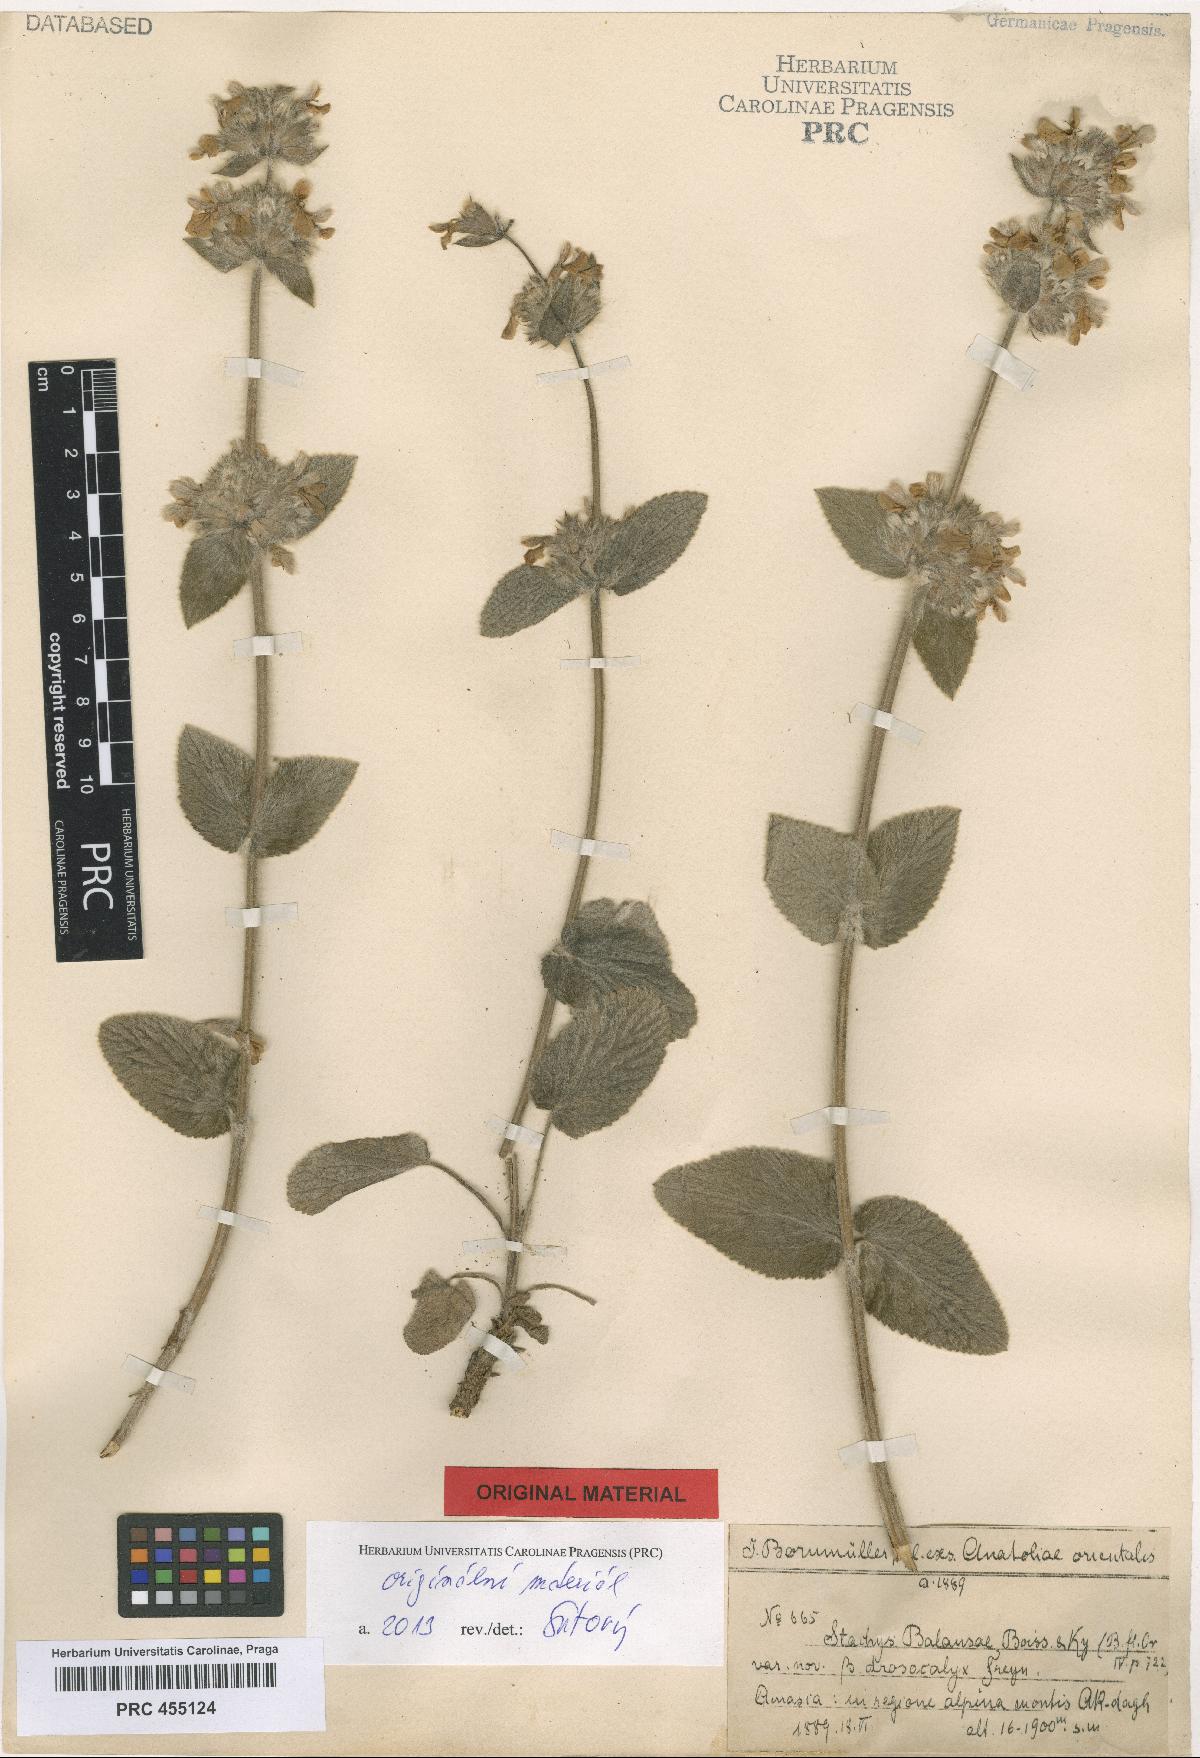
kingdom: Plantae
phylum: Tracheophyta
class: Magnoliopsida
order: Lamiales
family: Lamiaceae
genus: Stachys
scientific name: Stachys balansae
